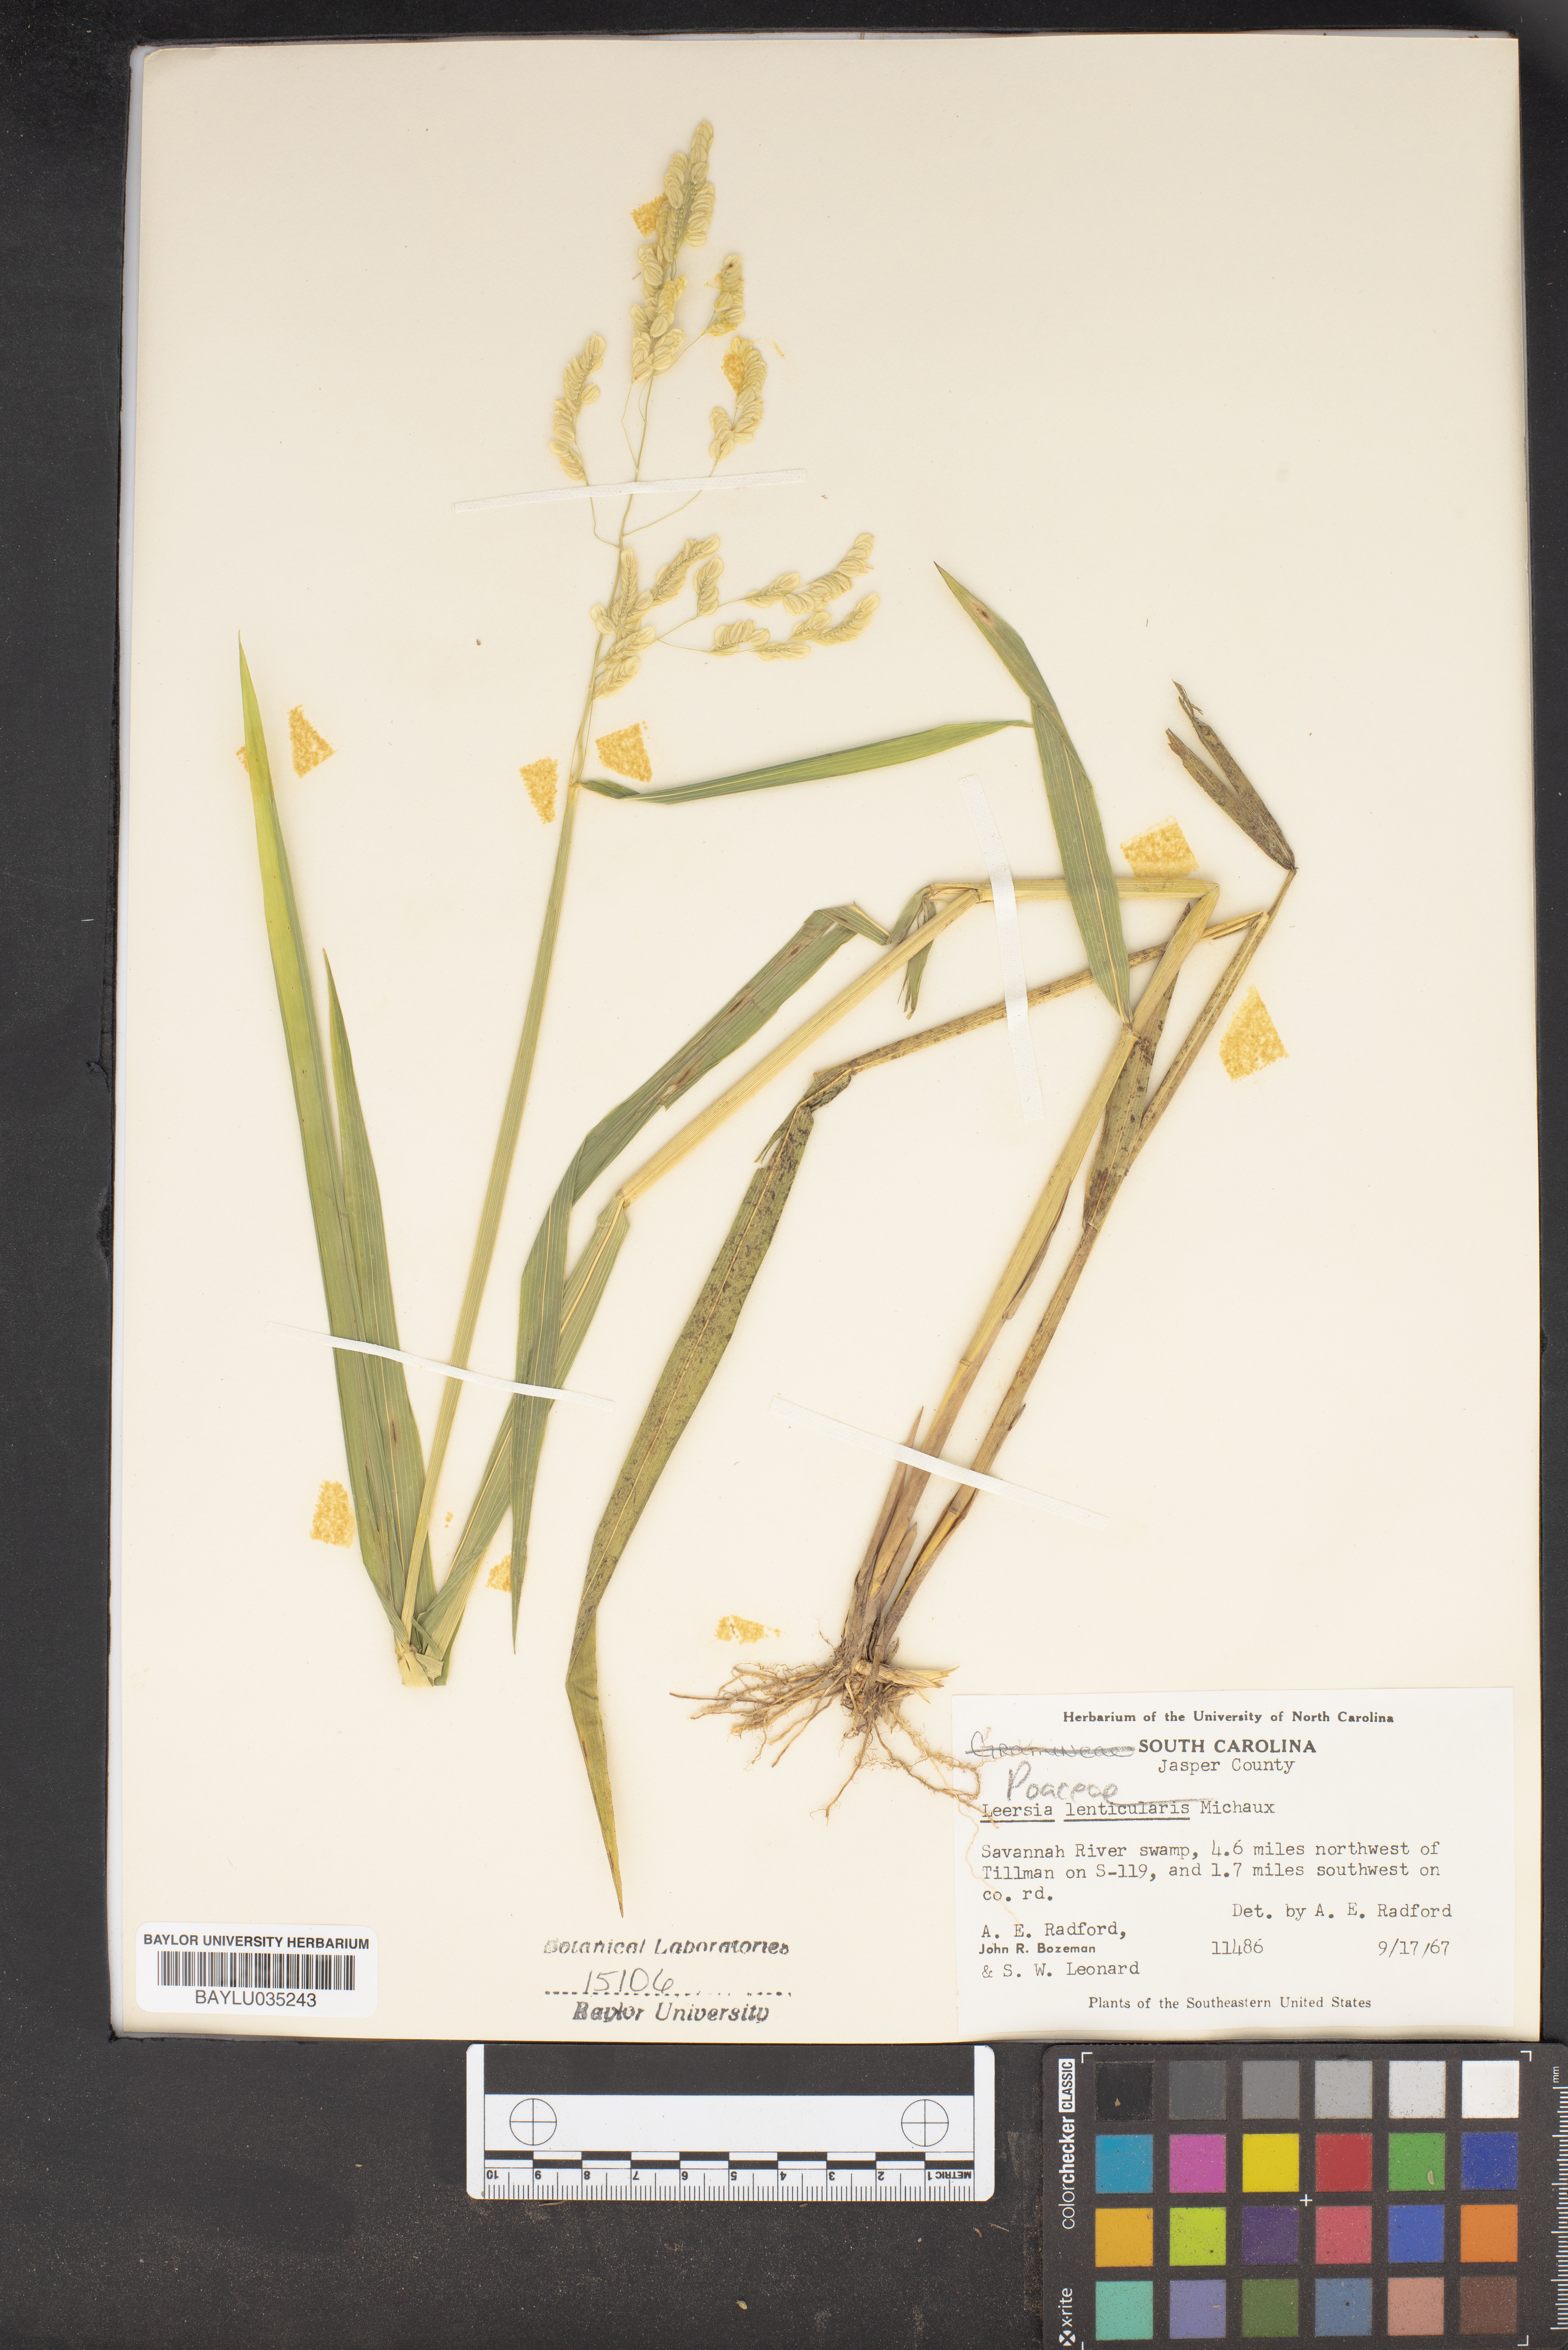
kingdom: Plantae
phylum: Tracheophyta
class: Liliopsida
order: Poales
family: Poaceae
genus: Leersia
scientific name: Leersia lenticularis
